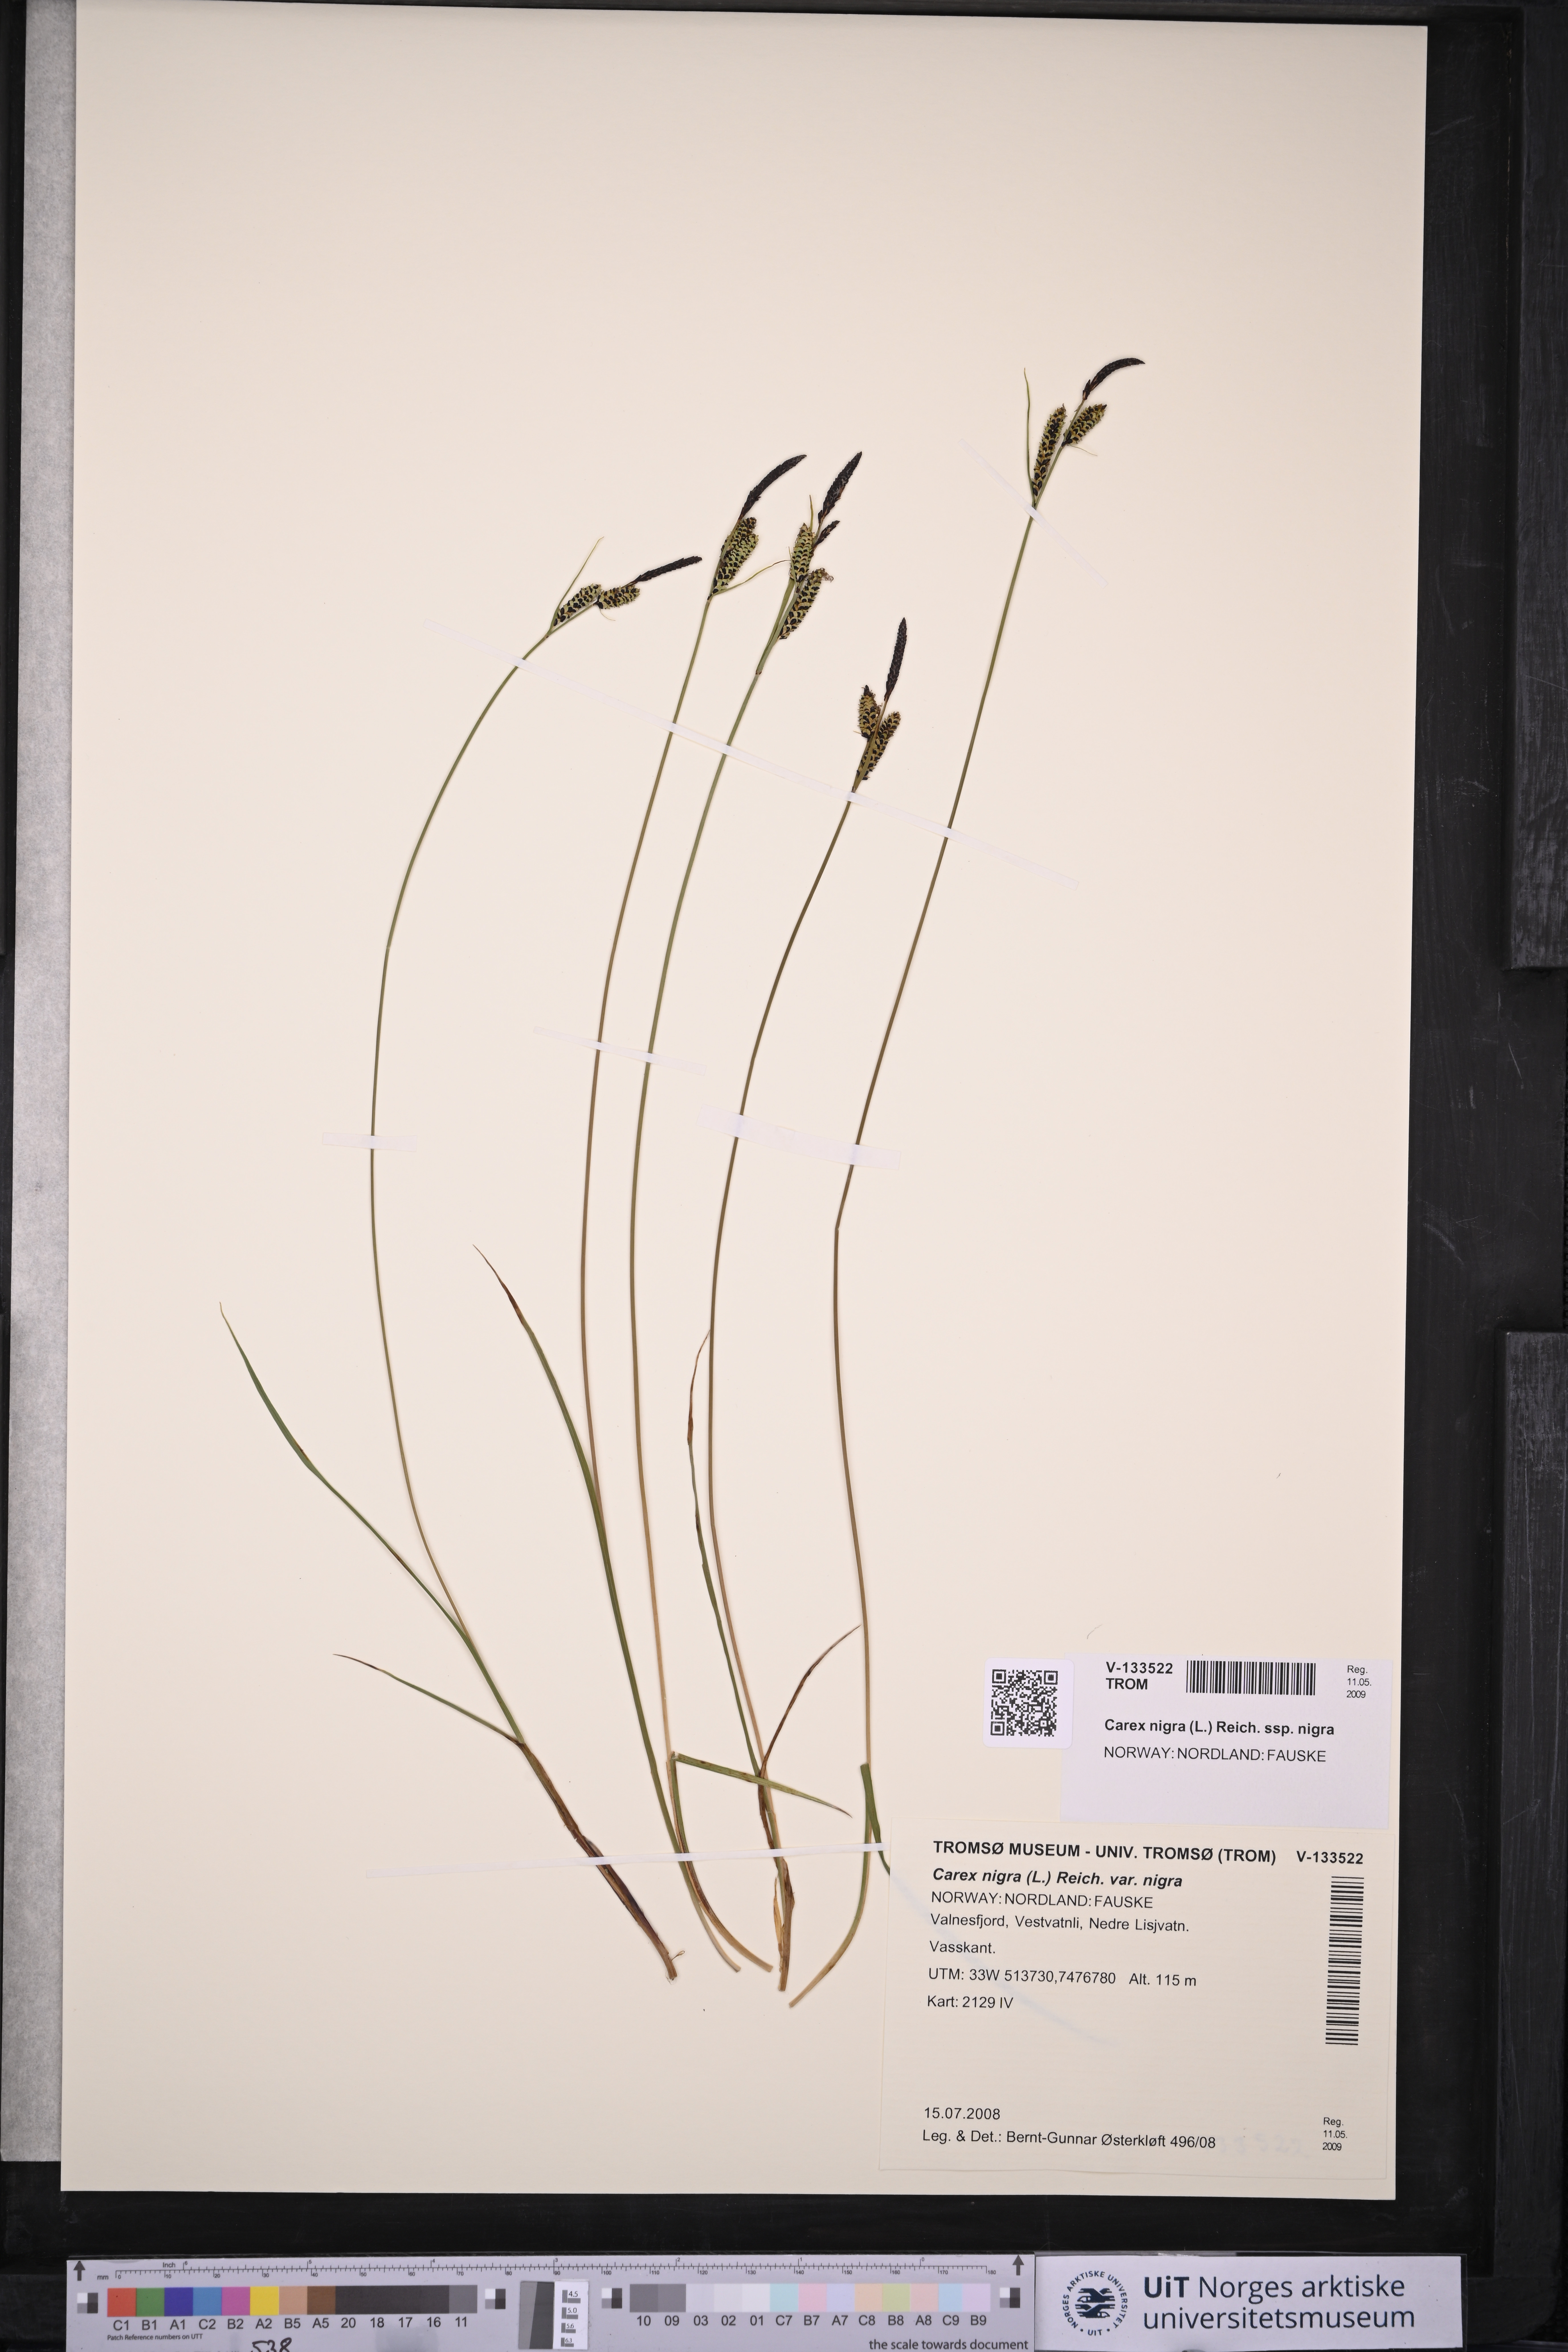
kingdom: Plantae
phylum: Tracheophyta
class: Liliopsida
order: Poales
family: Cyperaceae
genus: Carex
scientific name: Carex nigra
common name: Common sedge
